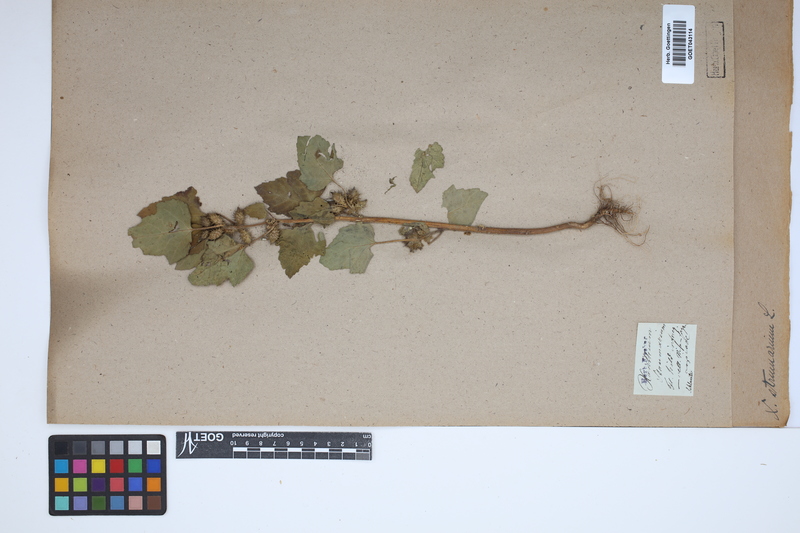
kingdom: Plantae
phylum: Tracheophyta
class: Magnoliopsida
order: Asterales
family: Asteraceae
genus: Xanthium
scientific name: Xanthium strumarium
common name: Rough cocklebur
